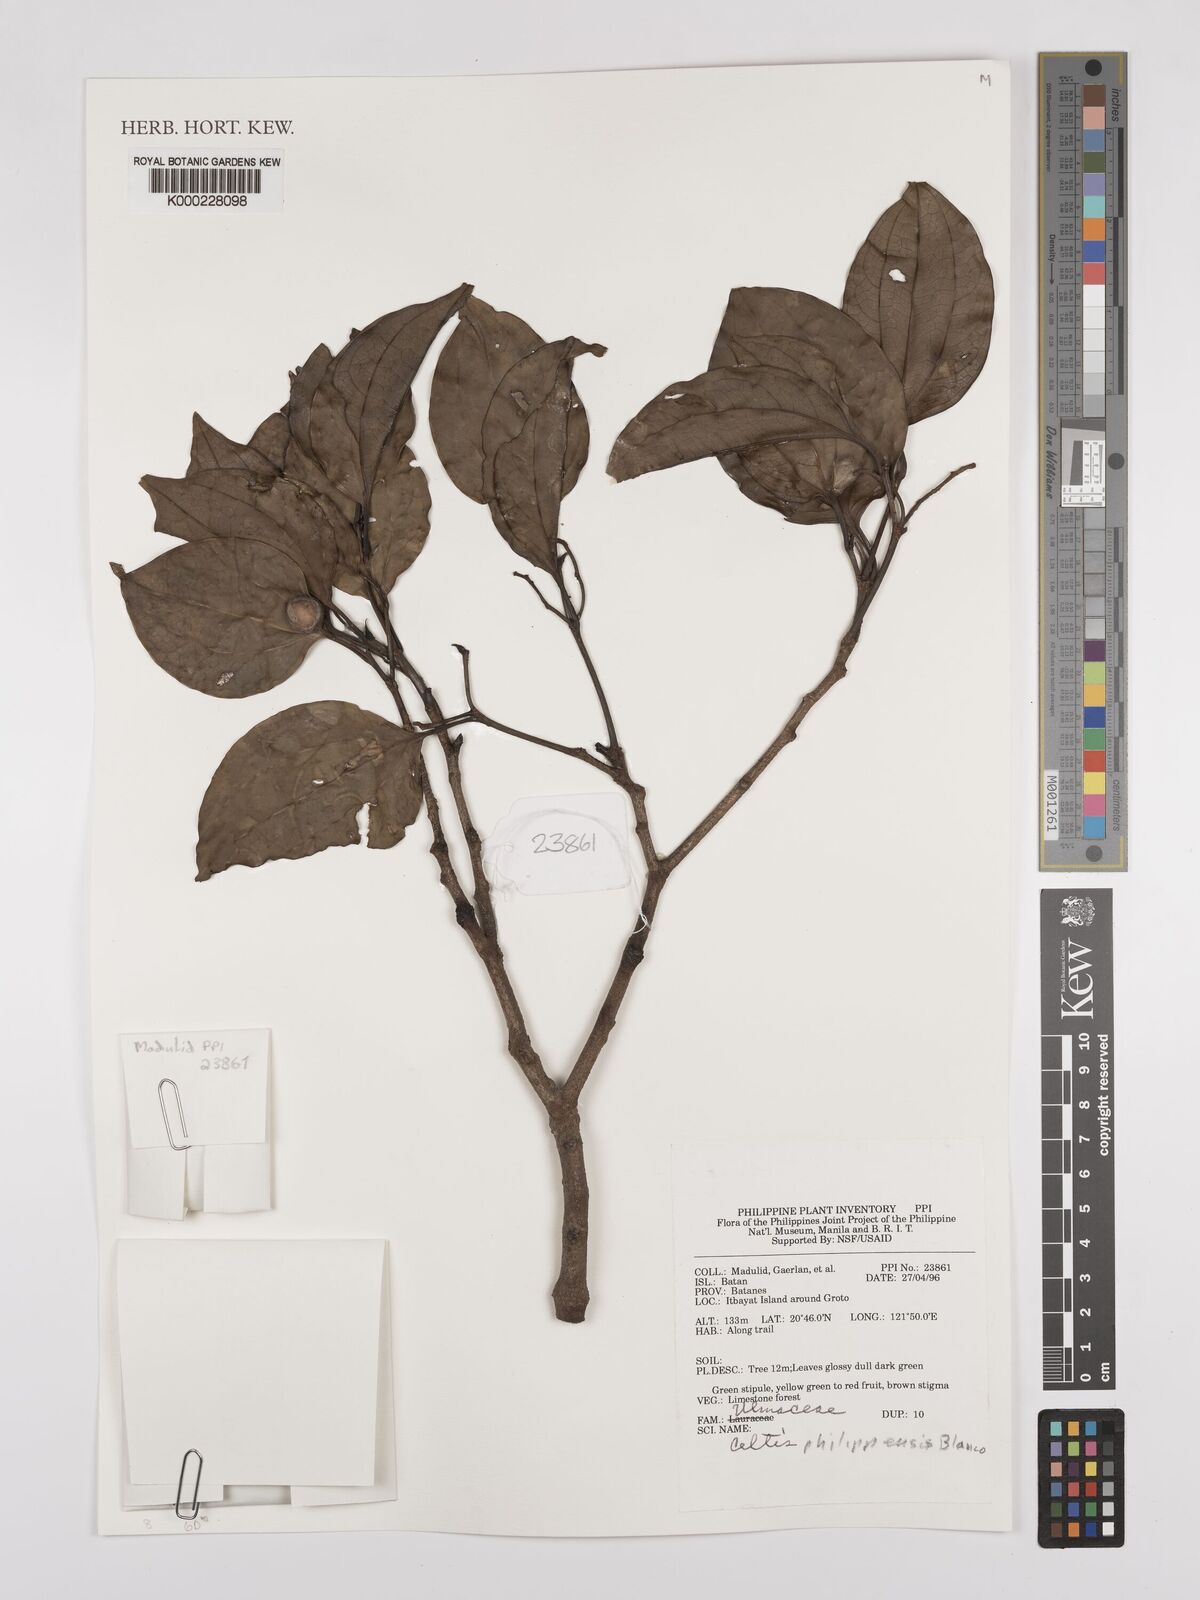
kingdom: Plantae
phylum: Tracheophyta
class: Magnoliopsida
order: Rosales
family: Cannabaceae
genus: Celtis
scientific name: Celtis philippensis
